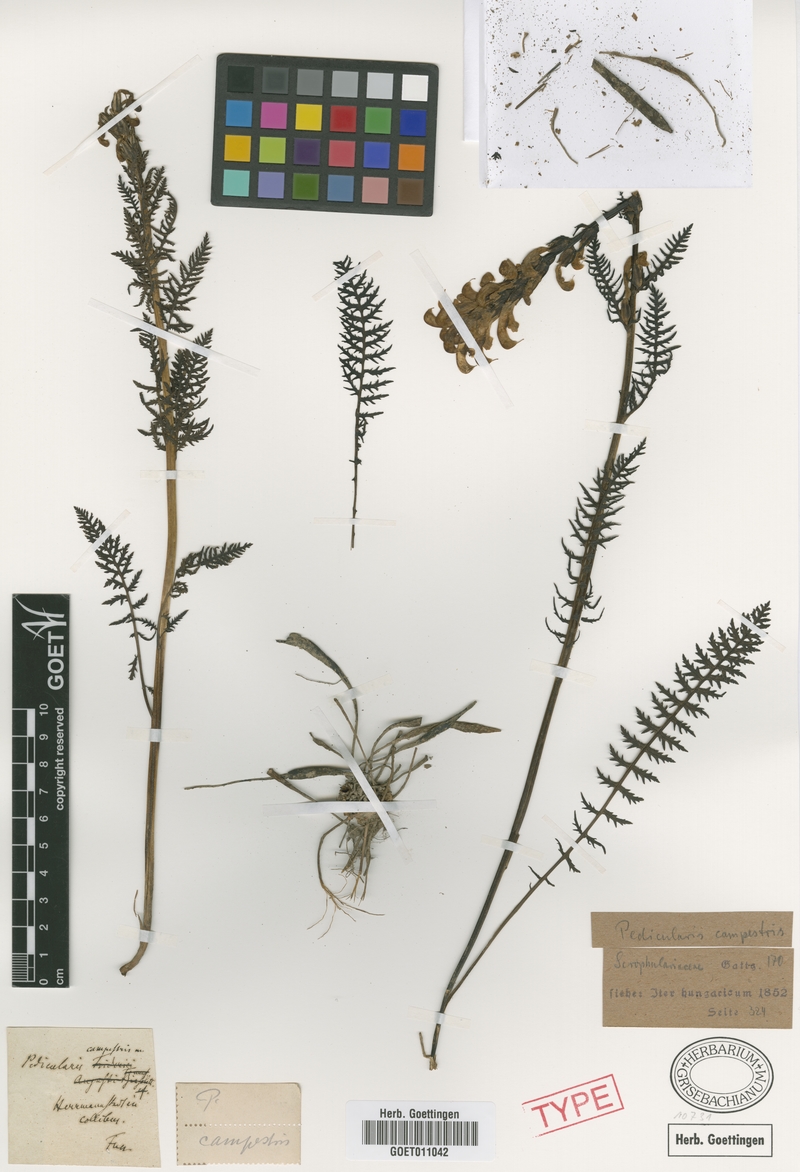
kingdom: Plantae
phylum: Tracheophyta
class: Magnoliopsida
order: Lamiales
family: Orobanchaceae
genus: Pedicularis
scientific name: Pedicularis comosa
